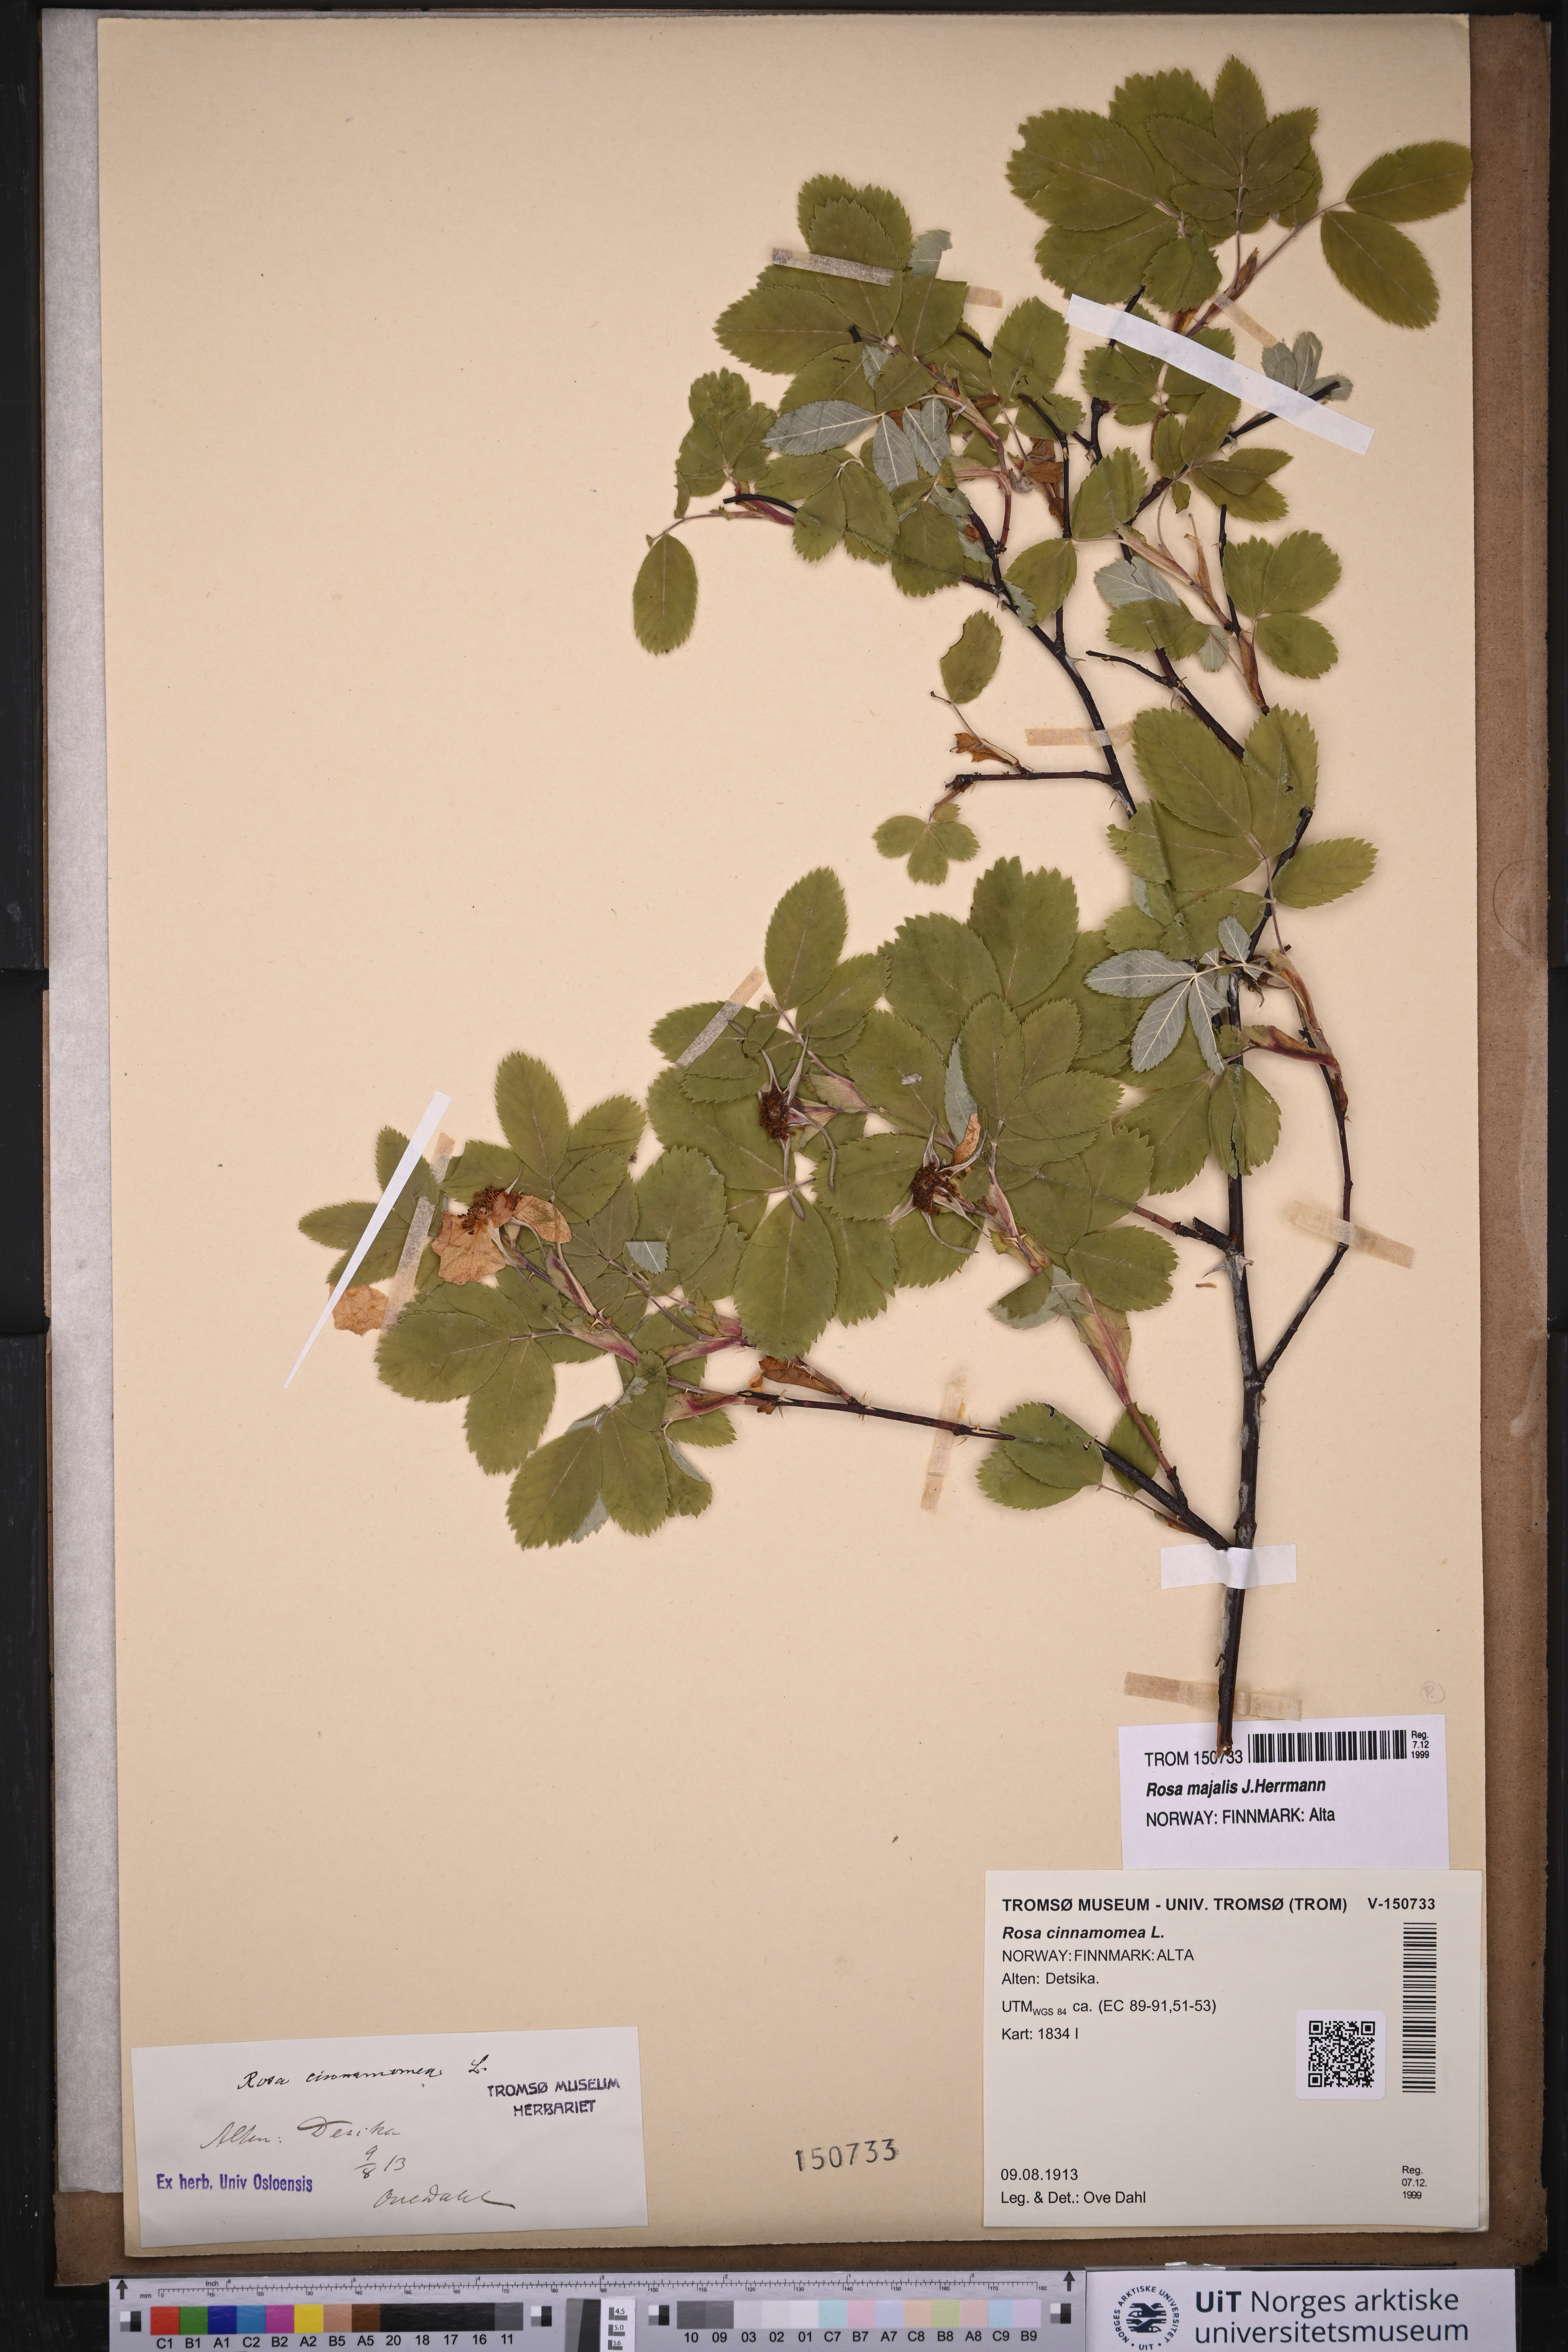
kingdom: Plantae
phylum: Tracheophyta
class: Magnoliopsida
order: Rosales
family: Rosaceae
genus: Rosa
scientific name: Rosa pendulina
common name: Alpine rose
